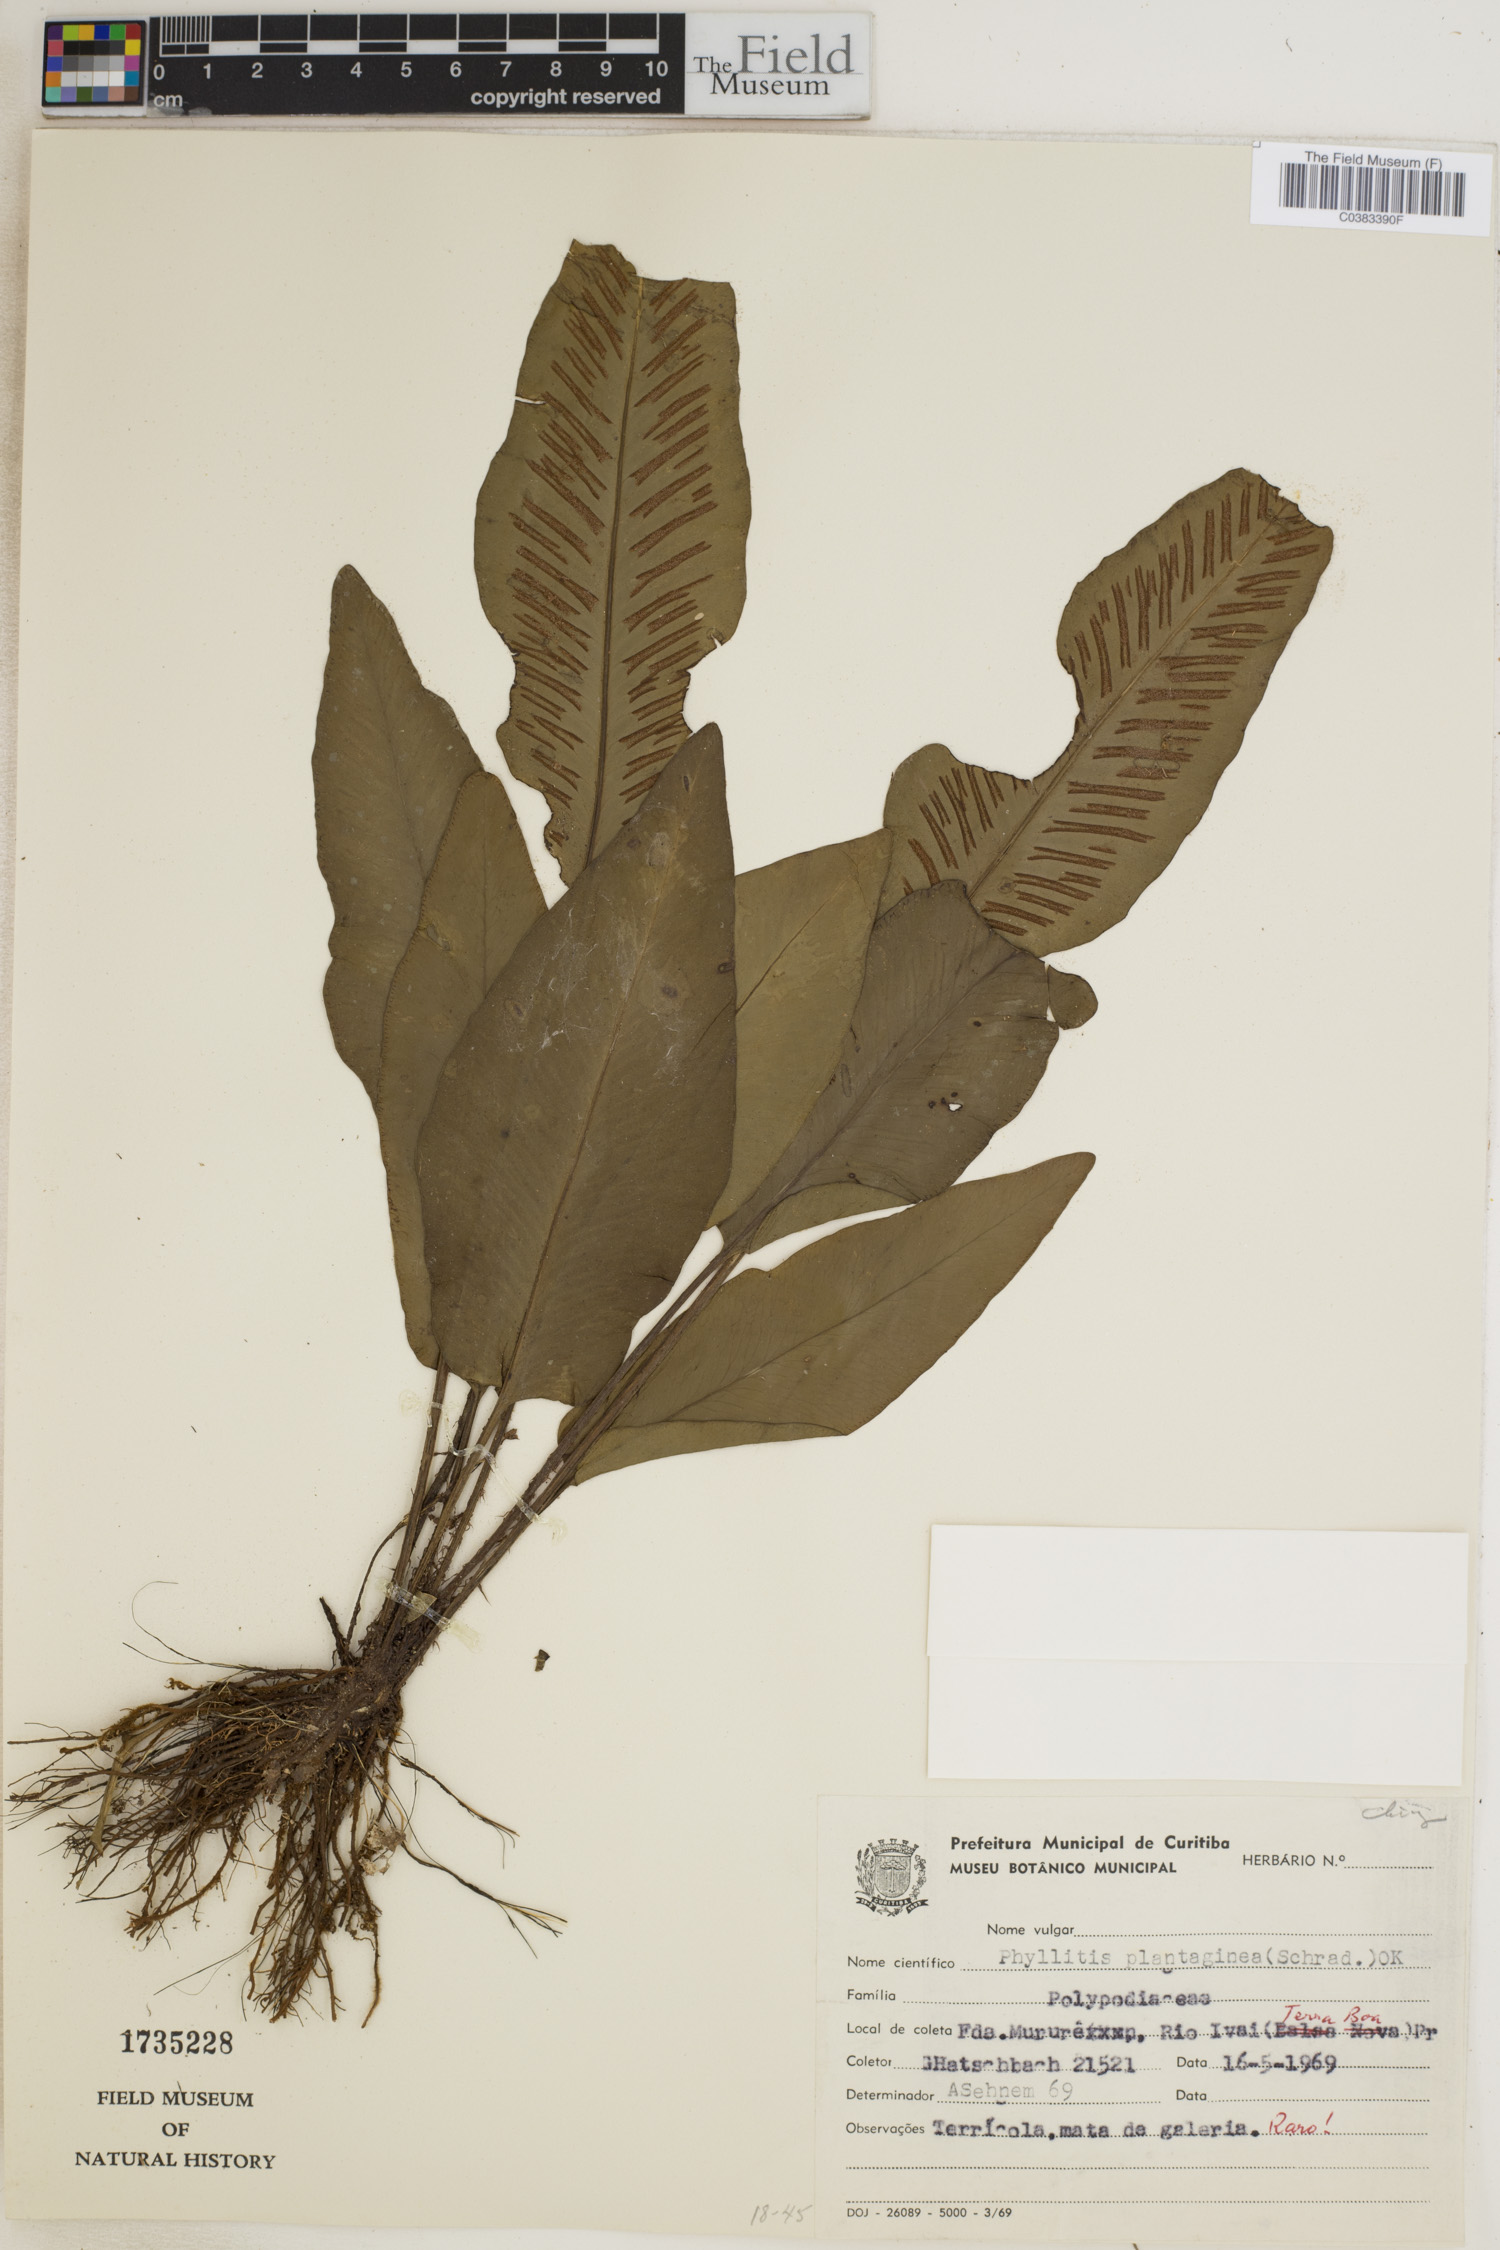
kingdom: Plantae
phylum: Tracheophyta
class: Polypodiopsida
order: Polypodiales
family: Aspleniaceae
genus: Asplenium
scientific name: Asplenium douglasii
